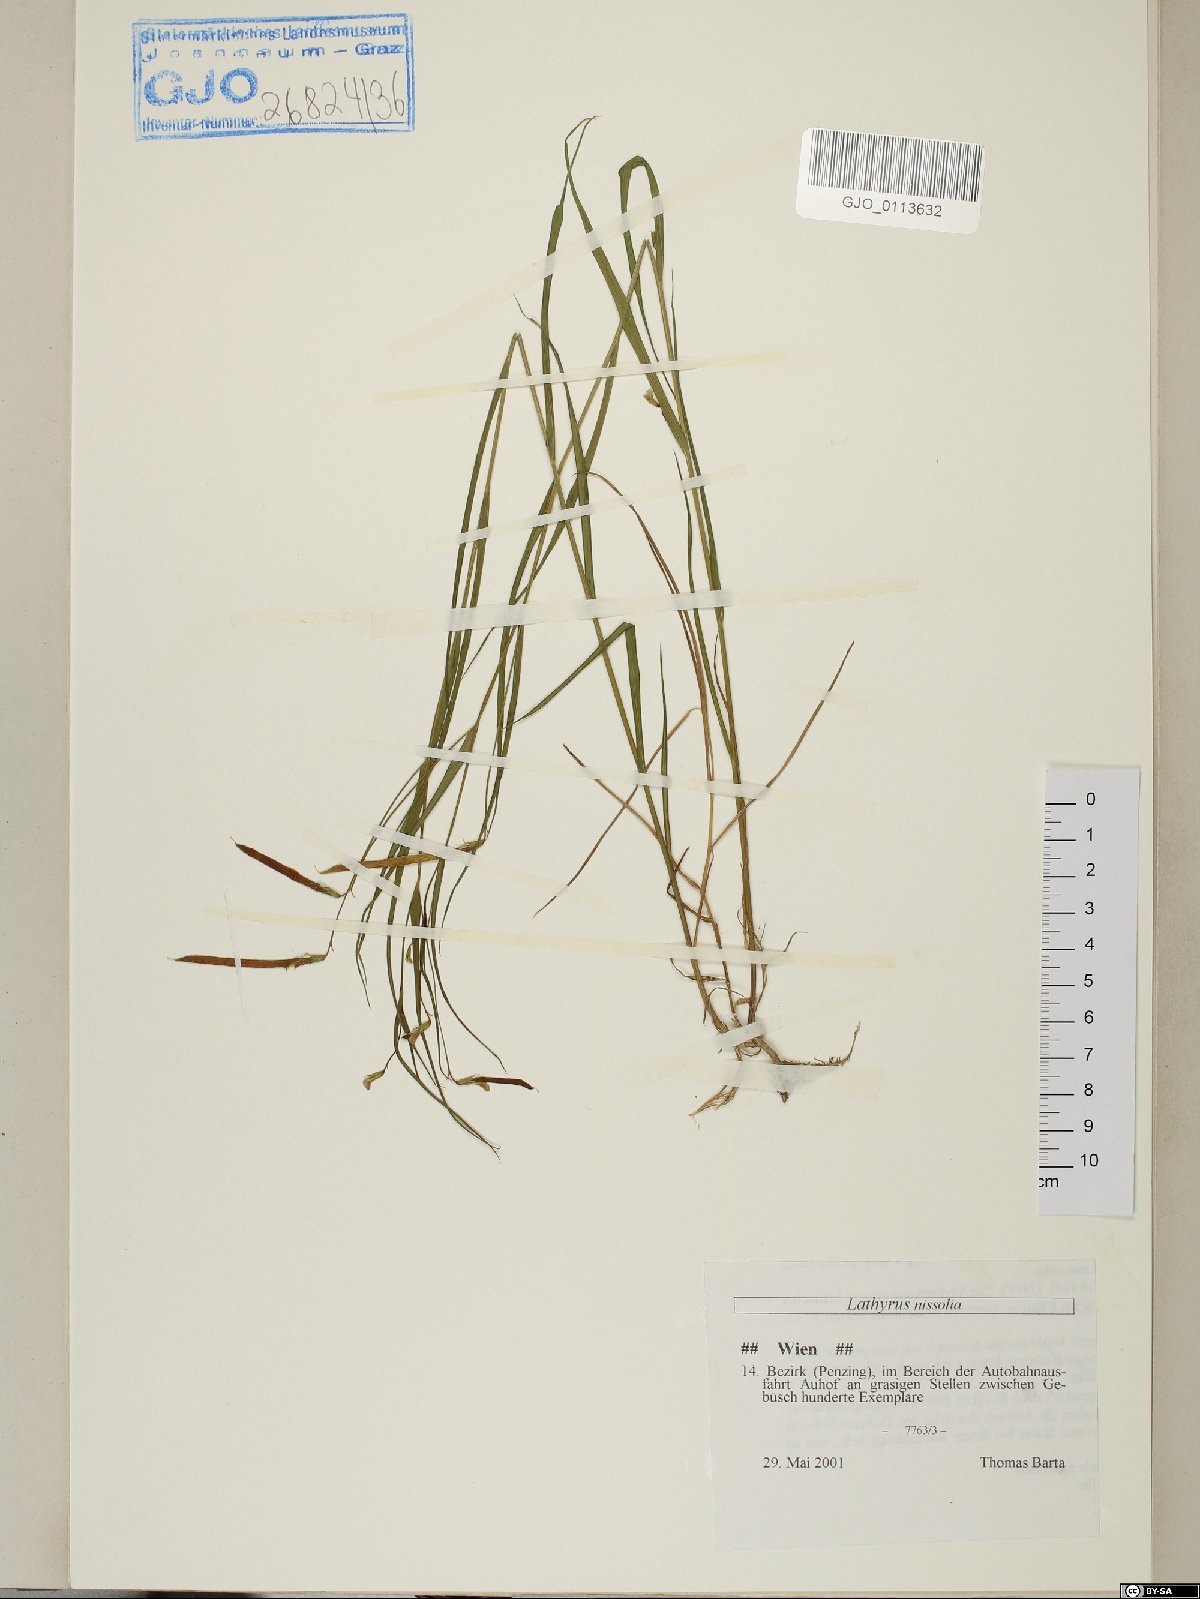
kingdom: Plantae
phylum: Tracheophyta
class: Magnoliopsida
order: Fabales
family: Fabaceae
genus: Lathyrus
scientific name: Lathyrus nissolia
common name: Grass vetchling
